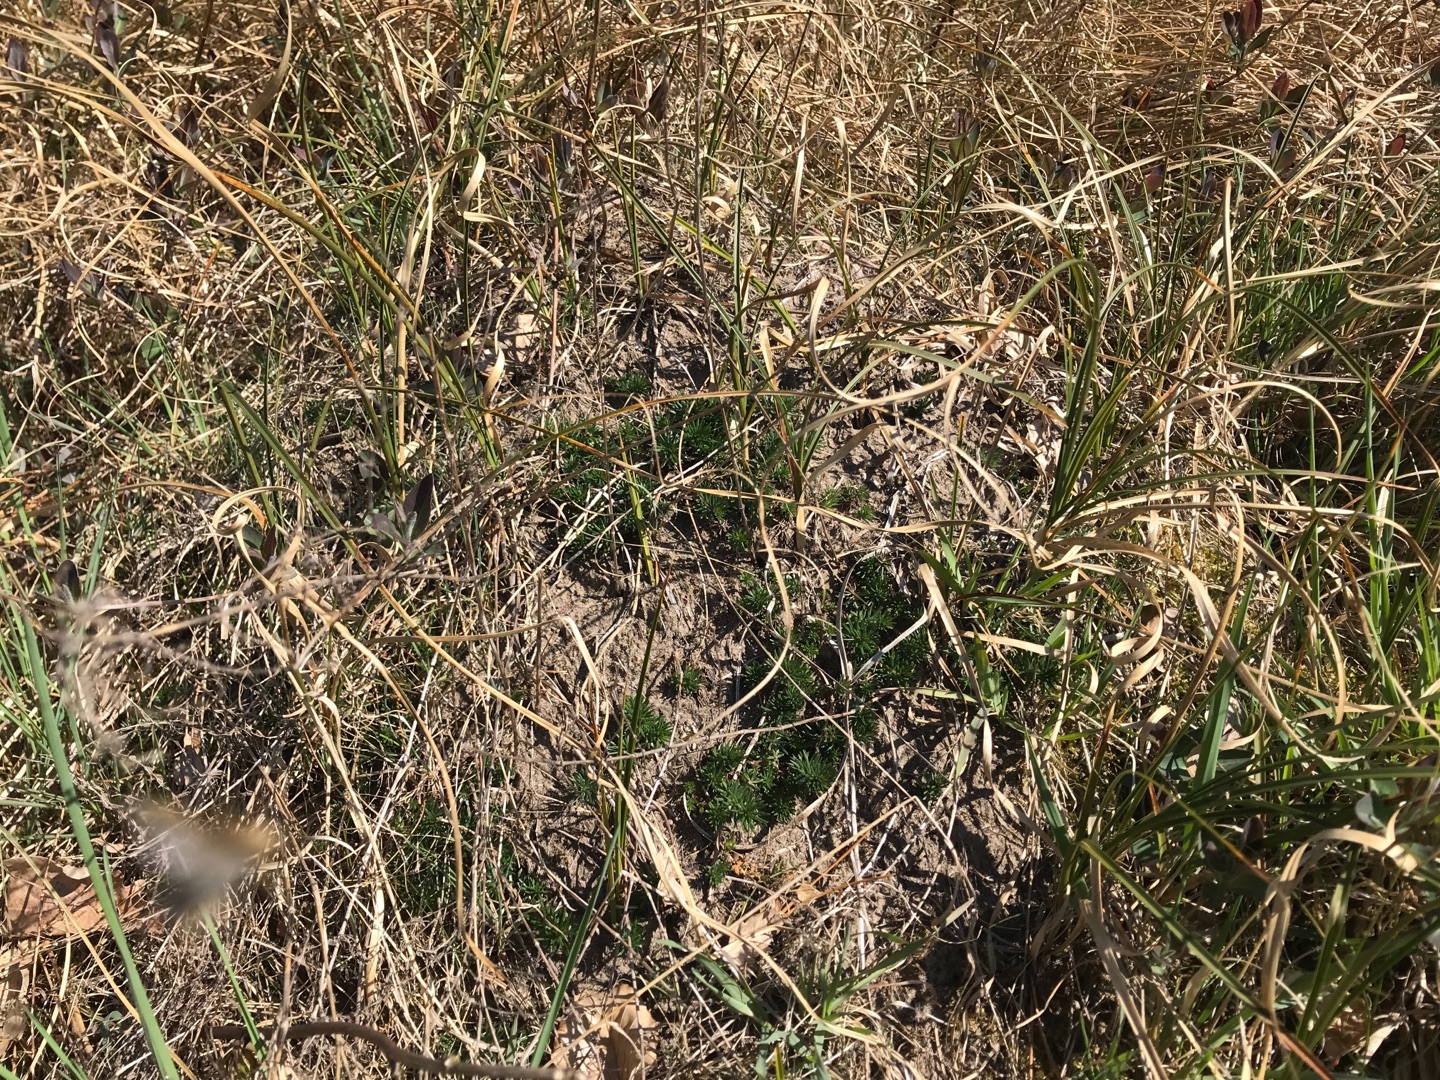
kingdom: Plantae
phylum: Tracheophyta
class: Liliopsida
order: Poales
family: Cyperaceae
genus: Carex
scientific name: Carex arenaria
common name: Sand-star
